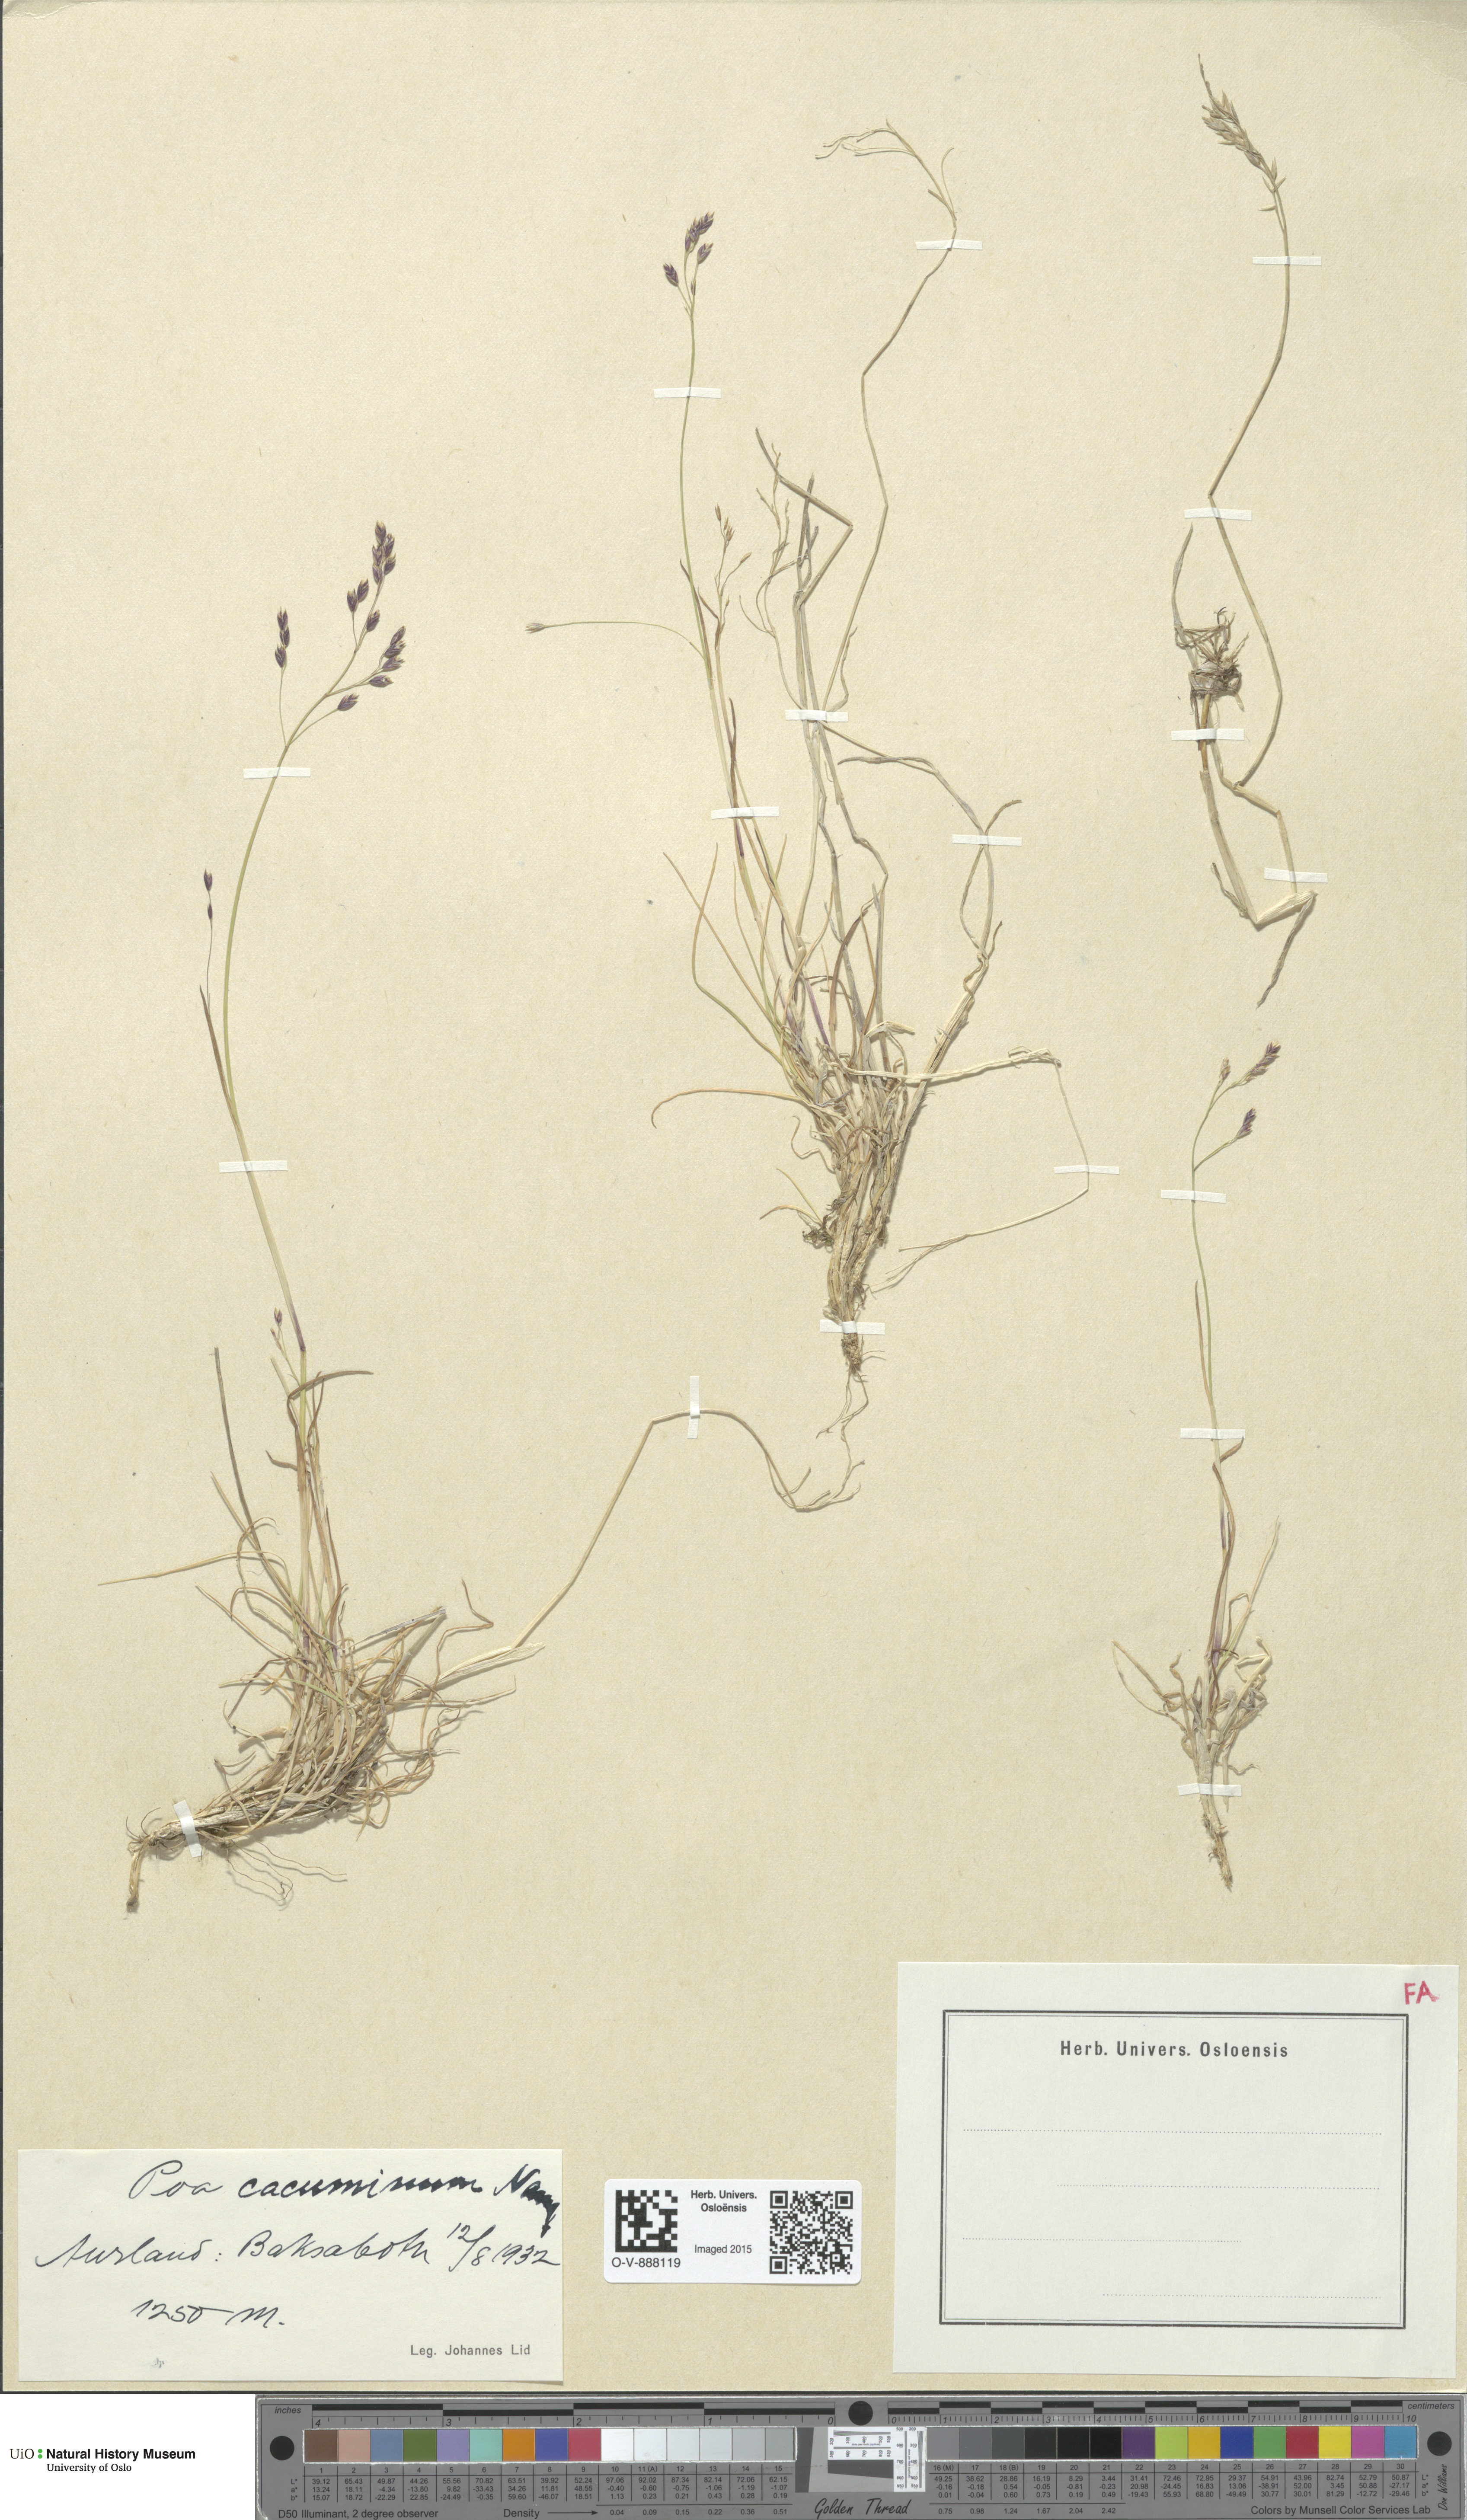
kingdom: Plantae
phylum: Tracheophyta
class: Liliopsida
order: Poales
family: Poaceae
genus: Poa
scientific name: Poa flexuosa
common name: Wavy meadow-grass
